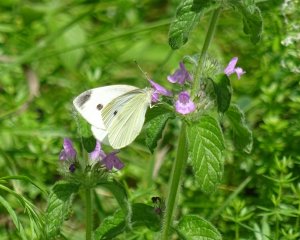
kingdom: Animalia
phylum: Arthropoda
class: Insecta
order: Lepidoptera
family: Pieridae
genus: Pieris
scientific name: Pieris rapae
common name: Cabbage White
